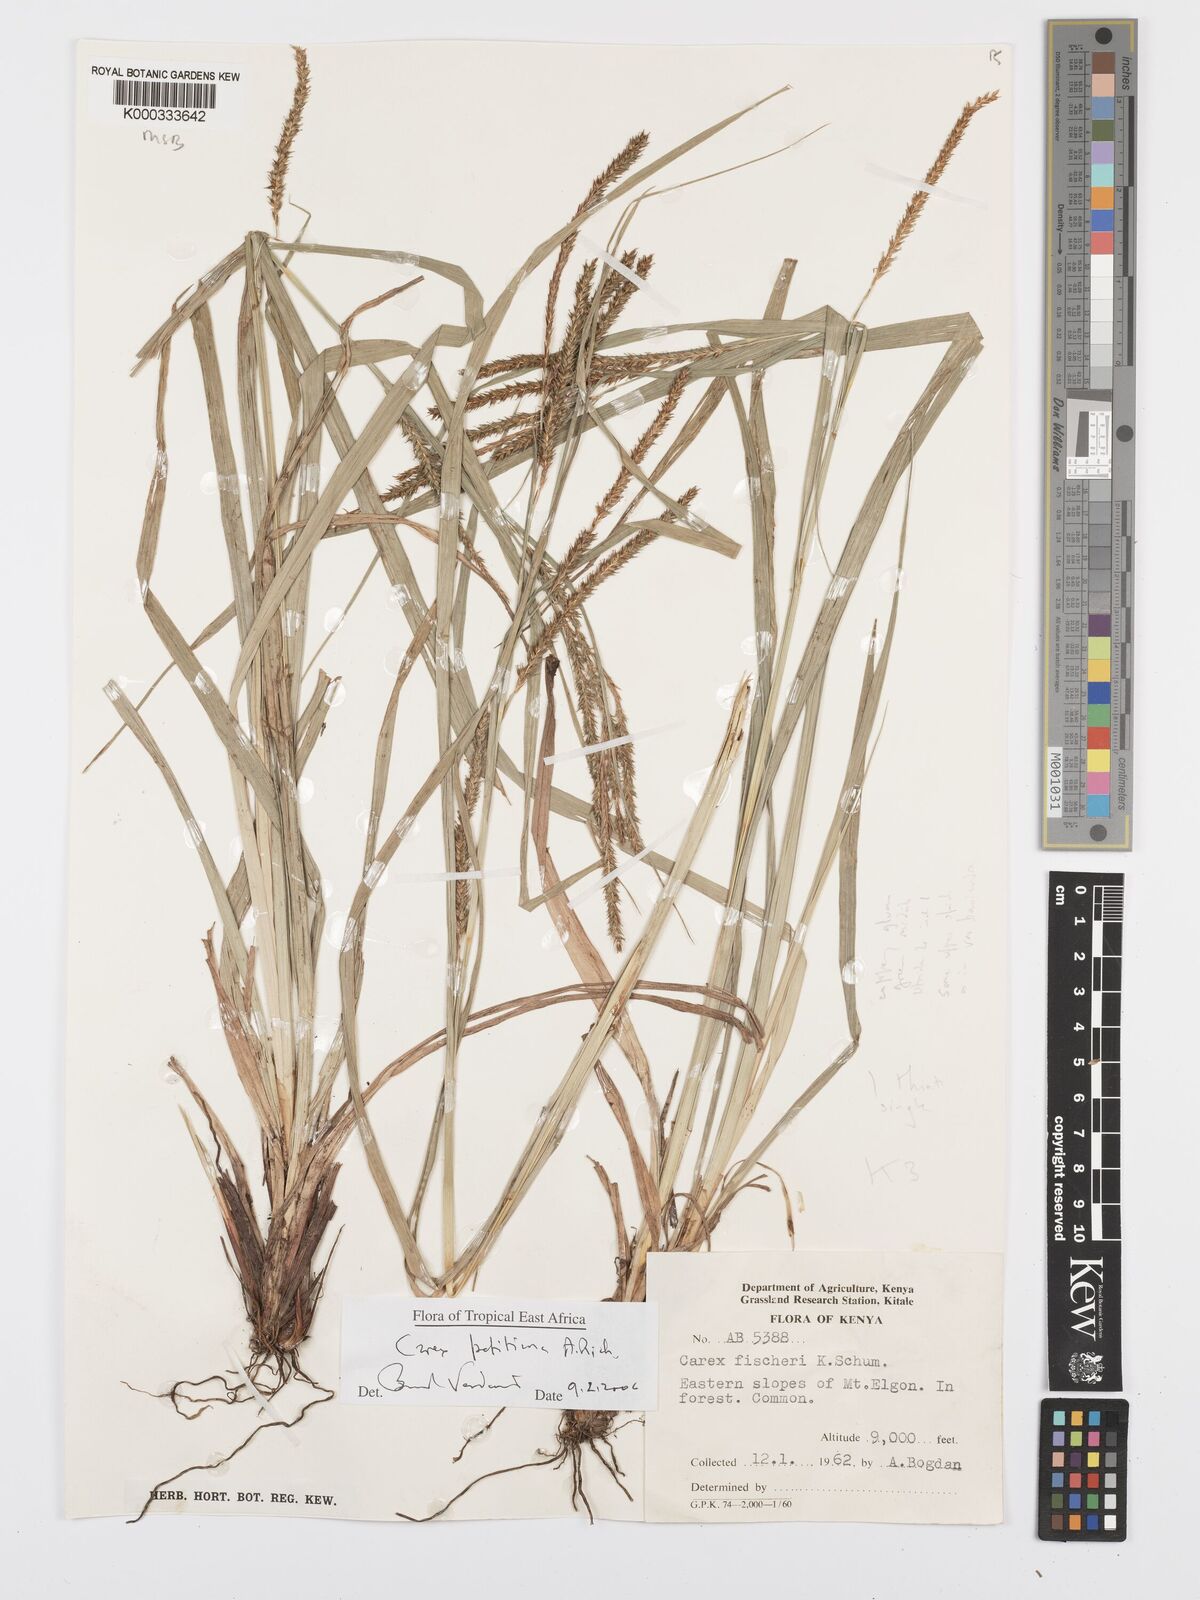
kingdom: Plantae
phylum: Tracheophyta
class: Liliopsida
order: Poales
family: Cyperaceae
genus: Carex
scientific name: Carex petitiana
